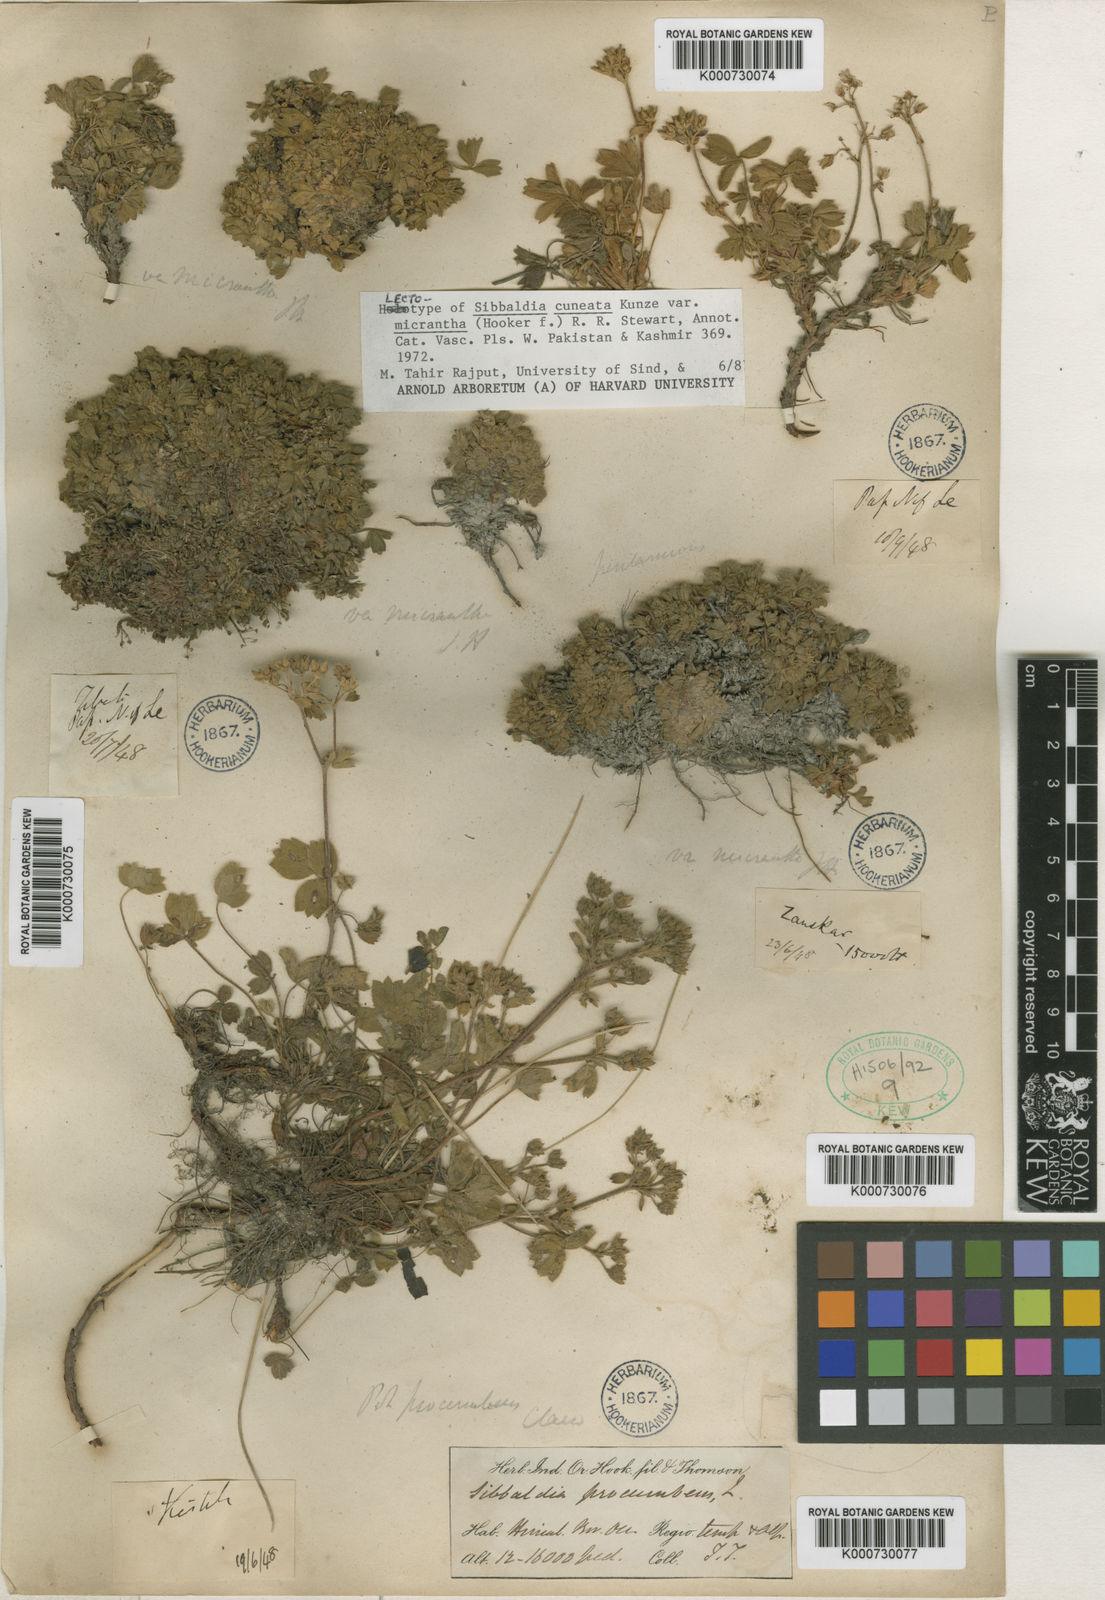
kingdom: Plantae
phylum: Tracheophyta
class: Magnoliopsida
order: Rosales
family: Rosaceae
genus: Sibbaldia
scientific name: Sibbaldia
